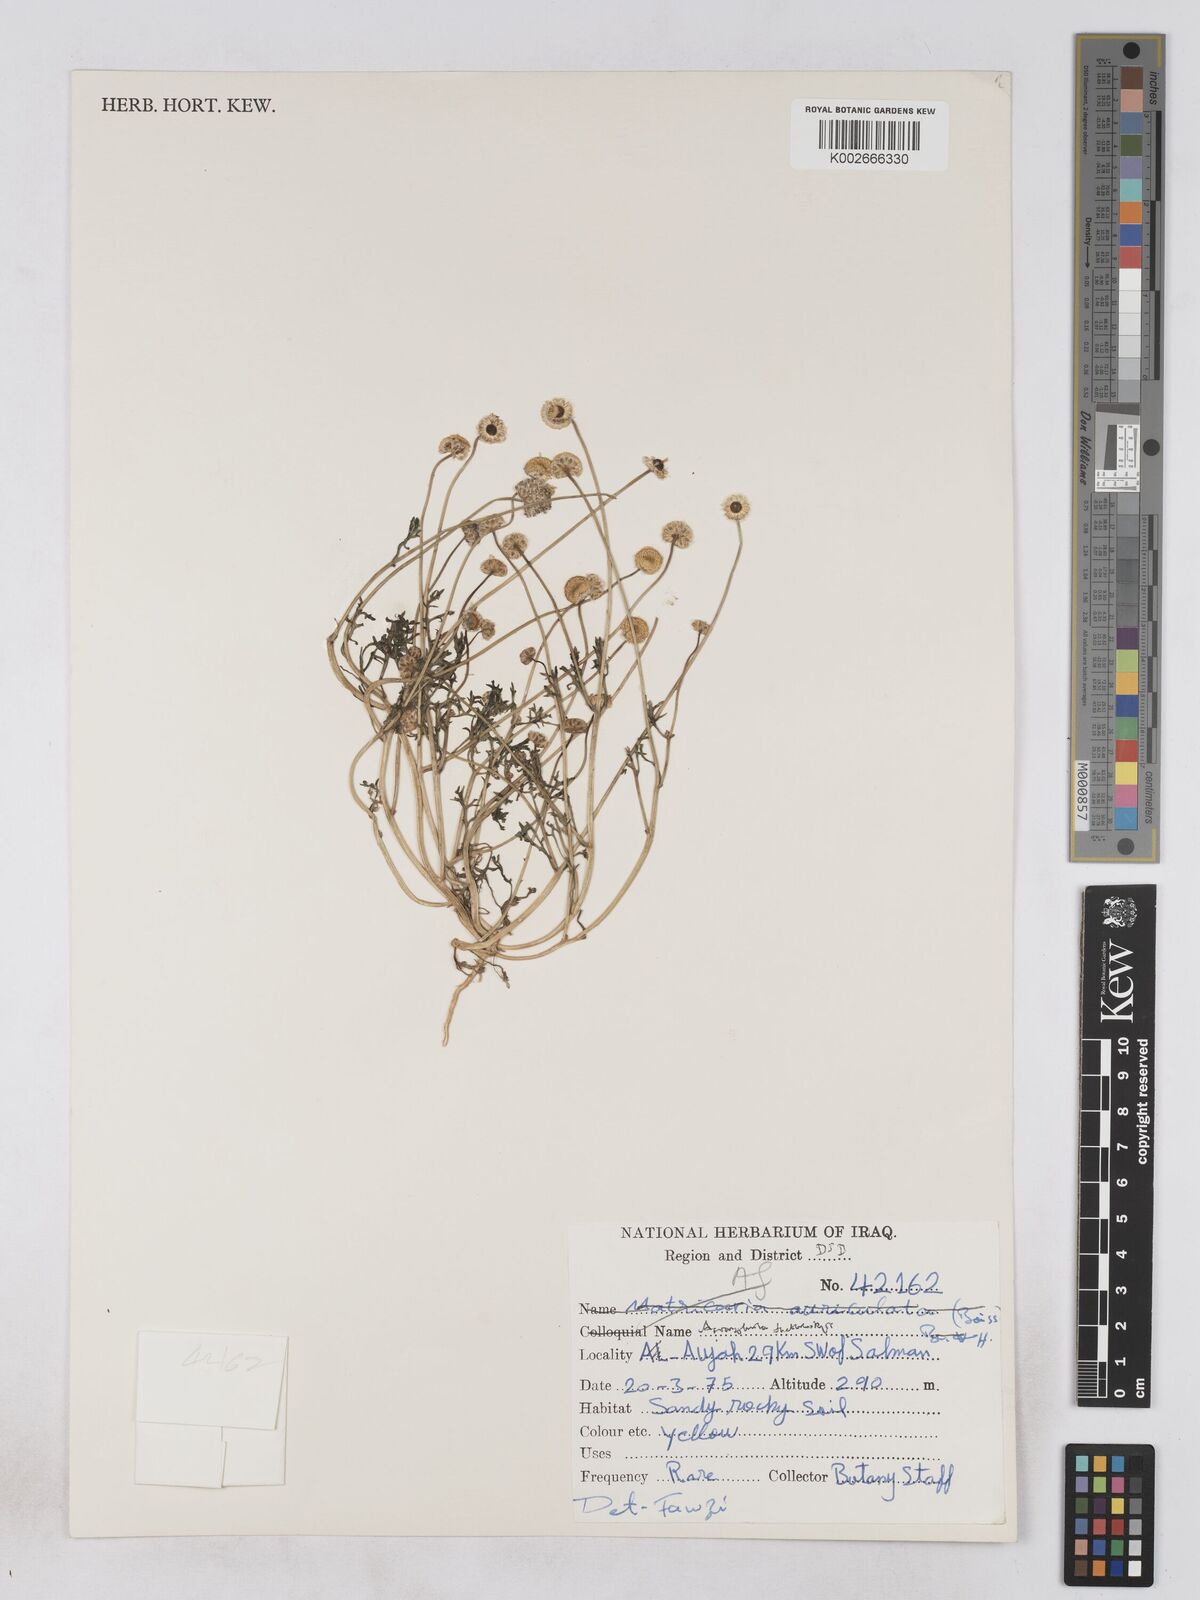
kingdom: Plantae
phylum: Tracheophyta
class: Magnoliopsida
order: Asterales
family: Asteraceae
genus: Otoglyphis
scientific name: Otoglyphis factorovskyi
